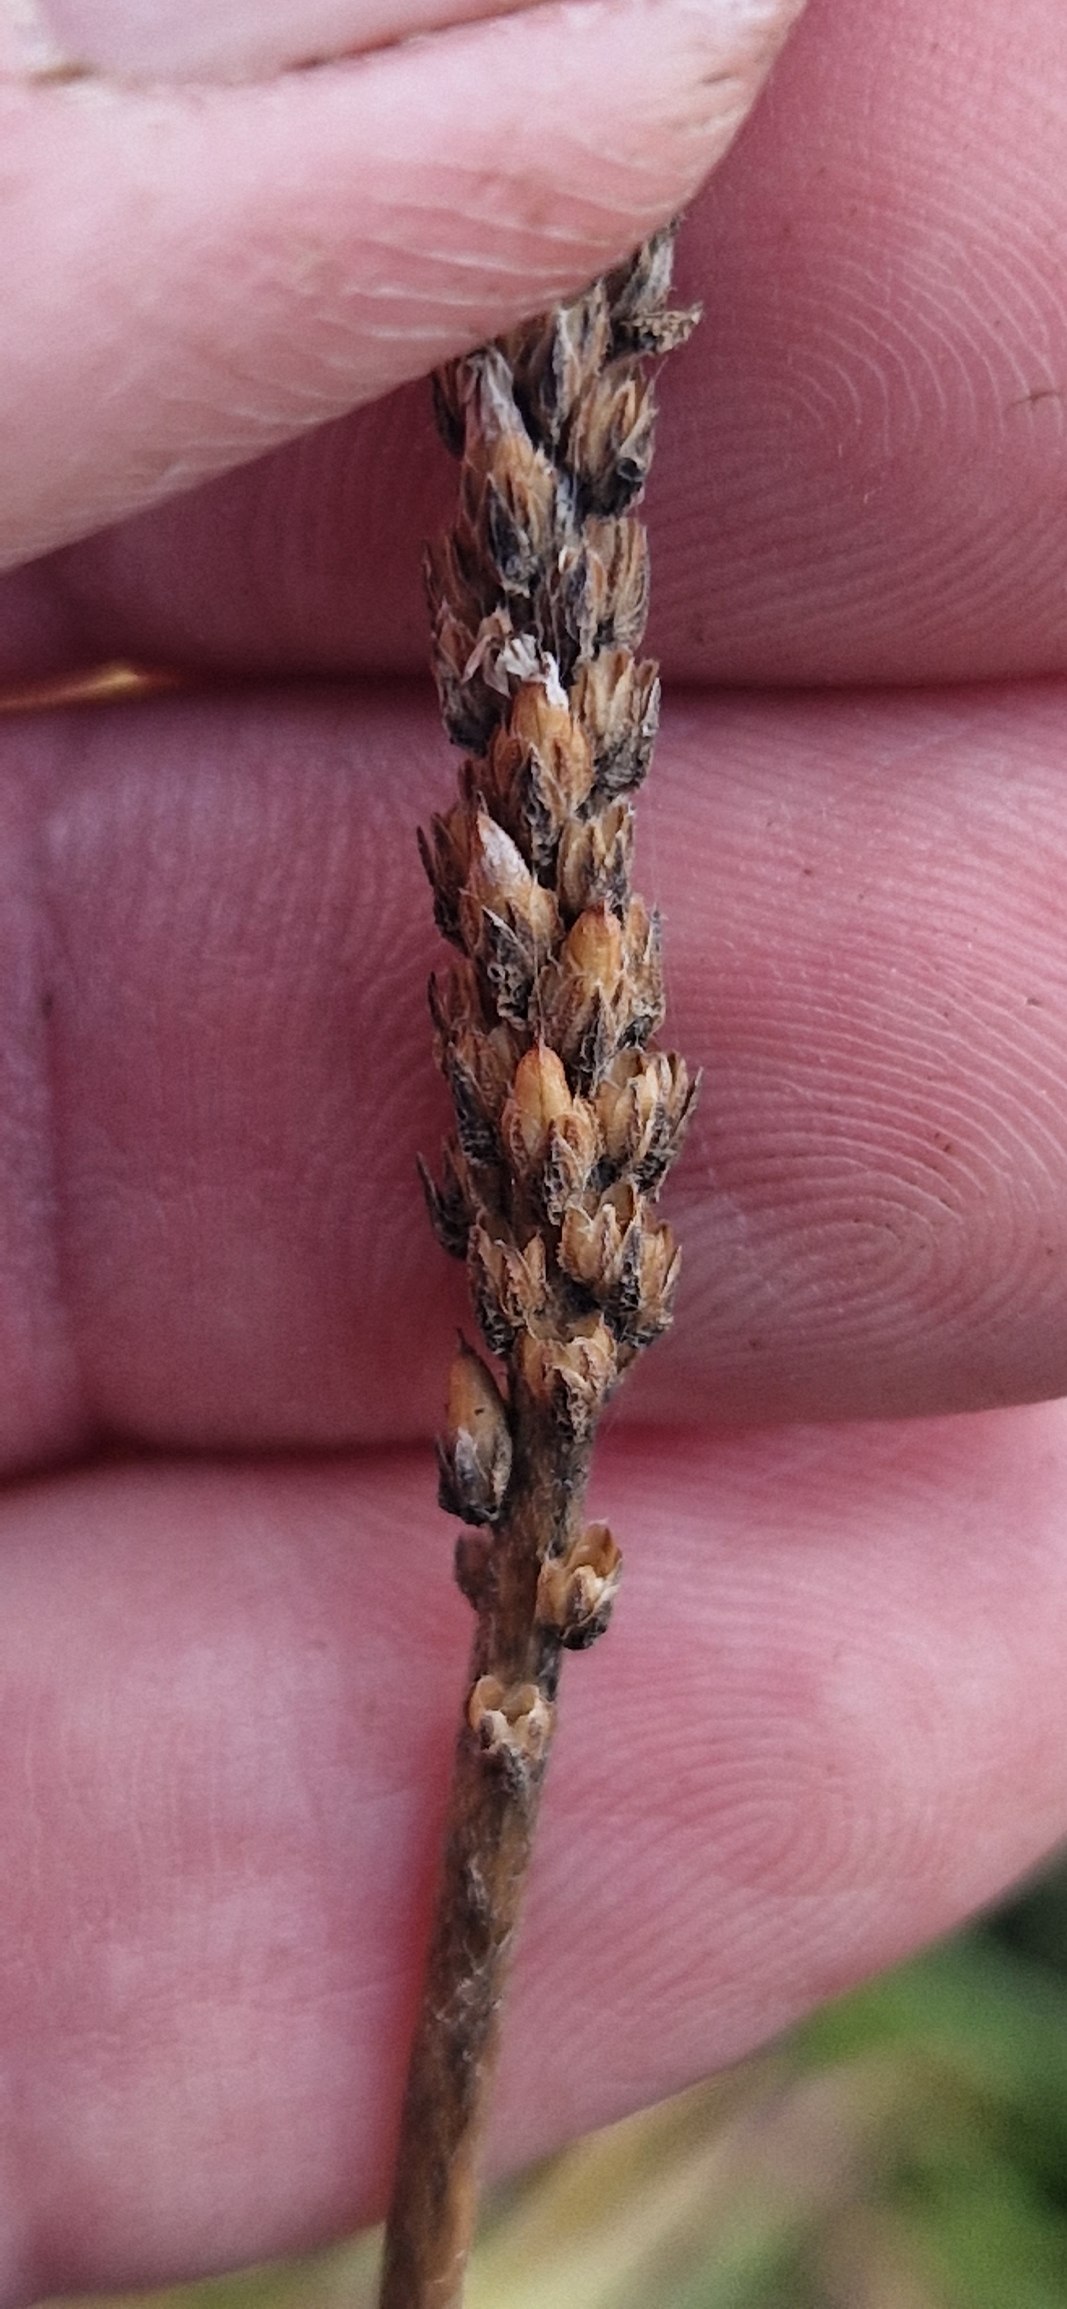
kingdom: Plantae
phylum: Tracheophyta
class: Magnoliopsida
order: Lamiales
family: Plantaginaceae
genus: Plantago
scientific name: Plantago maritima
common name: Strand-vejbred
